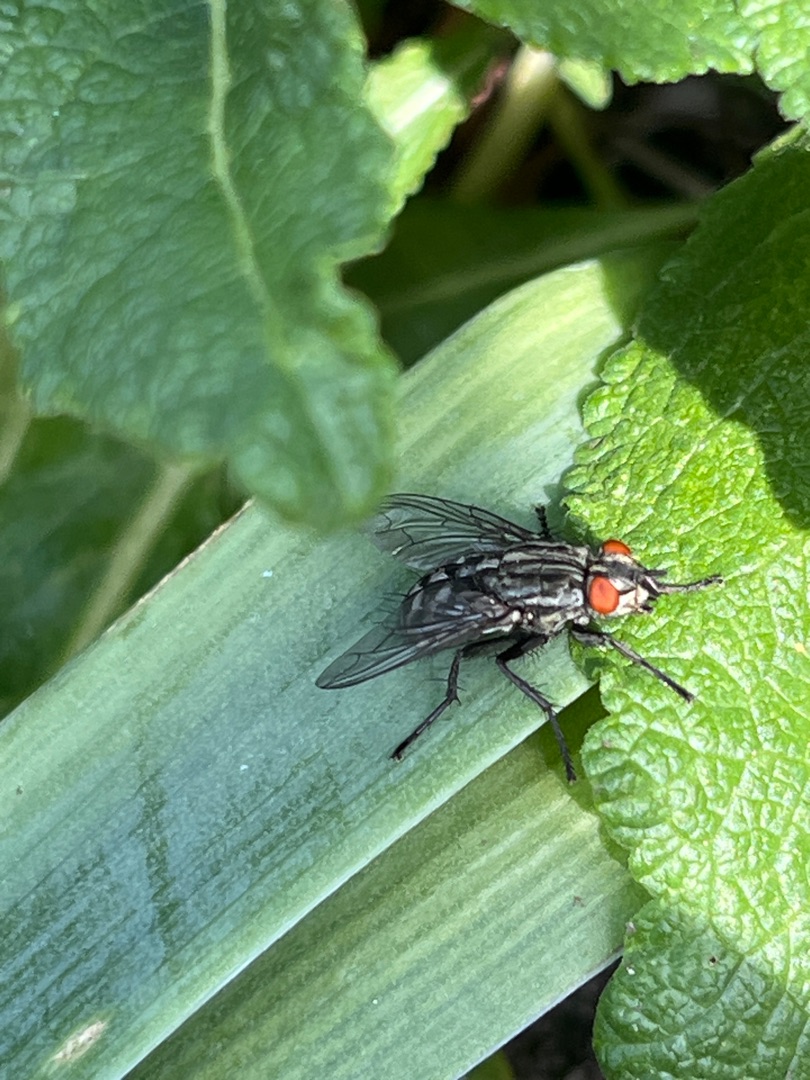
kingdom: Animalia
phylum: Arthropoda
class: Insecta
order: Diptera
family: Sarcophagidae
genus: Sarcophaga
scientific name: Sarcophaga
